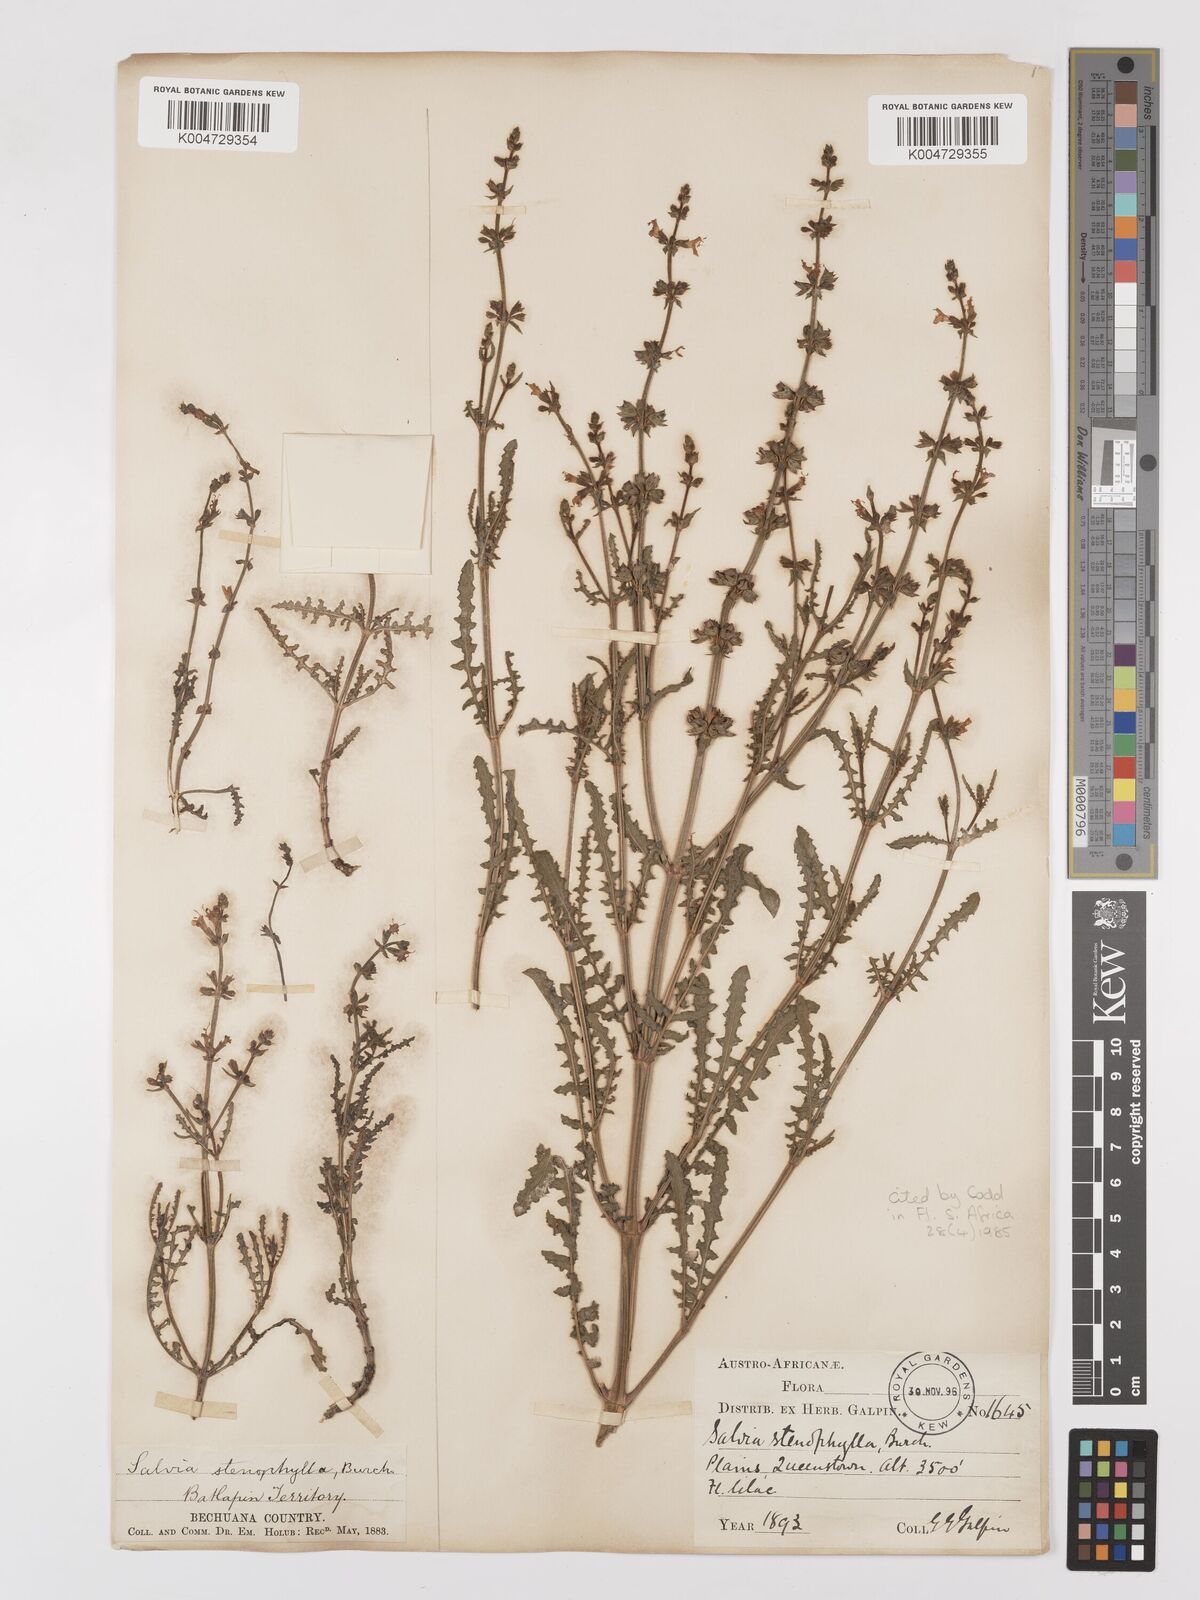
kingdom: Plantae
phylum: Tracheophyta
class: Magnoliopsida
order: Lamiales
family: Lamiaceae
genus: Salvia
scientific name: Salvia stenophylla
